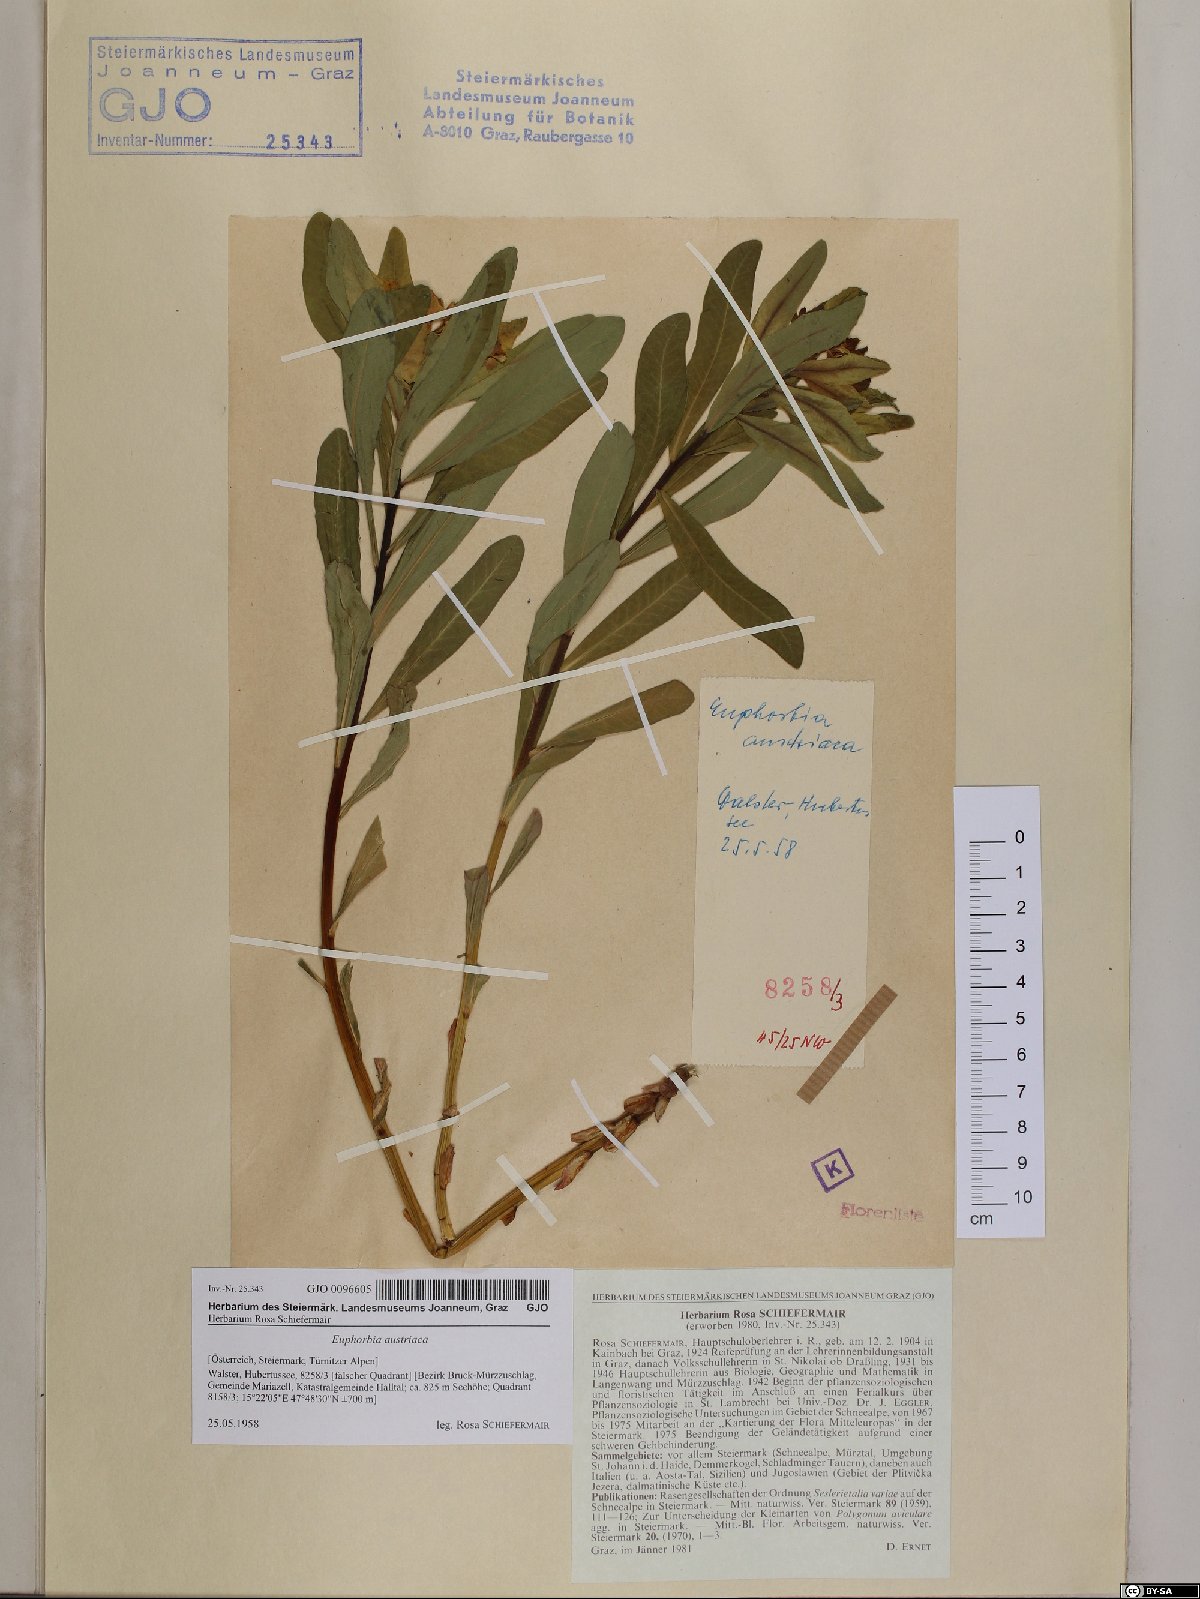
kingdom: Plantae
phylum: Tracheophyta
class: Magnoliopsida
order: Malpighiales
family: Euphorbiaceae
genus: Euphorbia
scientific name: Euphorbia austriaca
